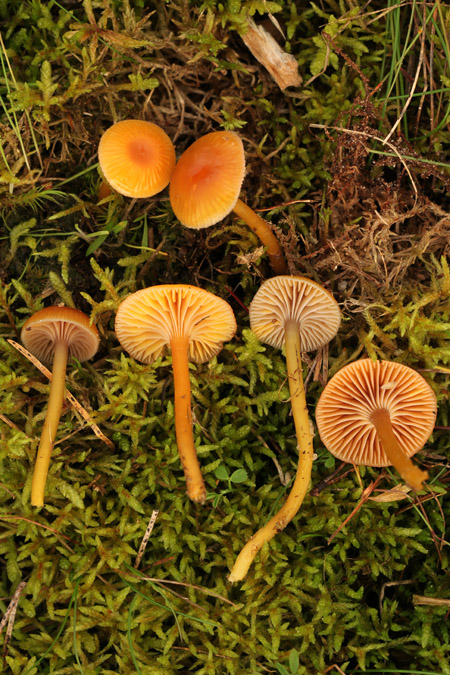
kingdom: Fungi
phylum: Basidiomycota
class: Agaricomycetes
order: Agaricales
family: Hygrophoraceae
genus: Gliophorus
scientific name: Gliophorus laetus
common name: brusk-vokshat
